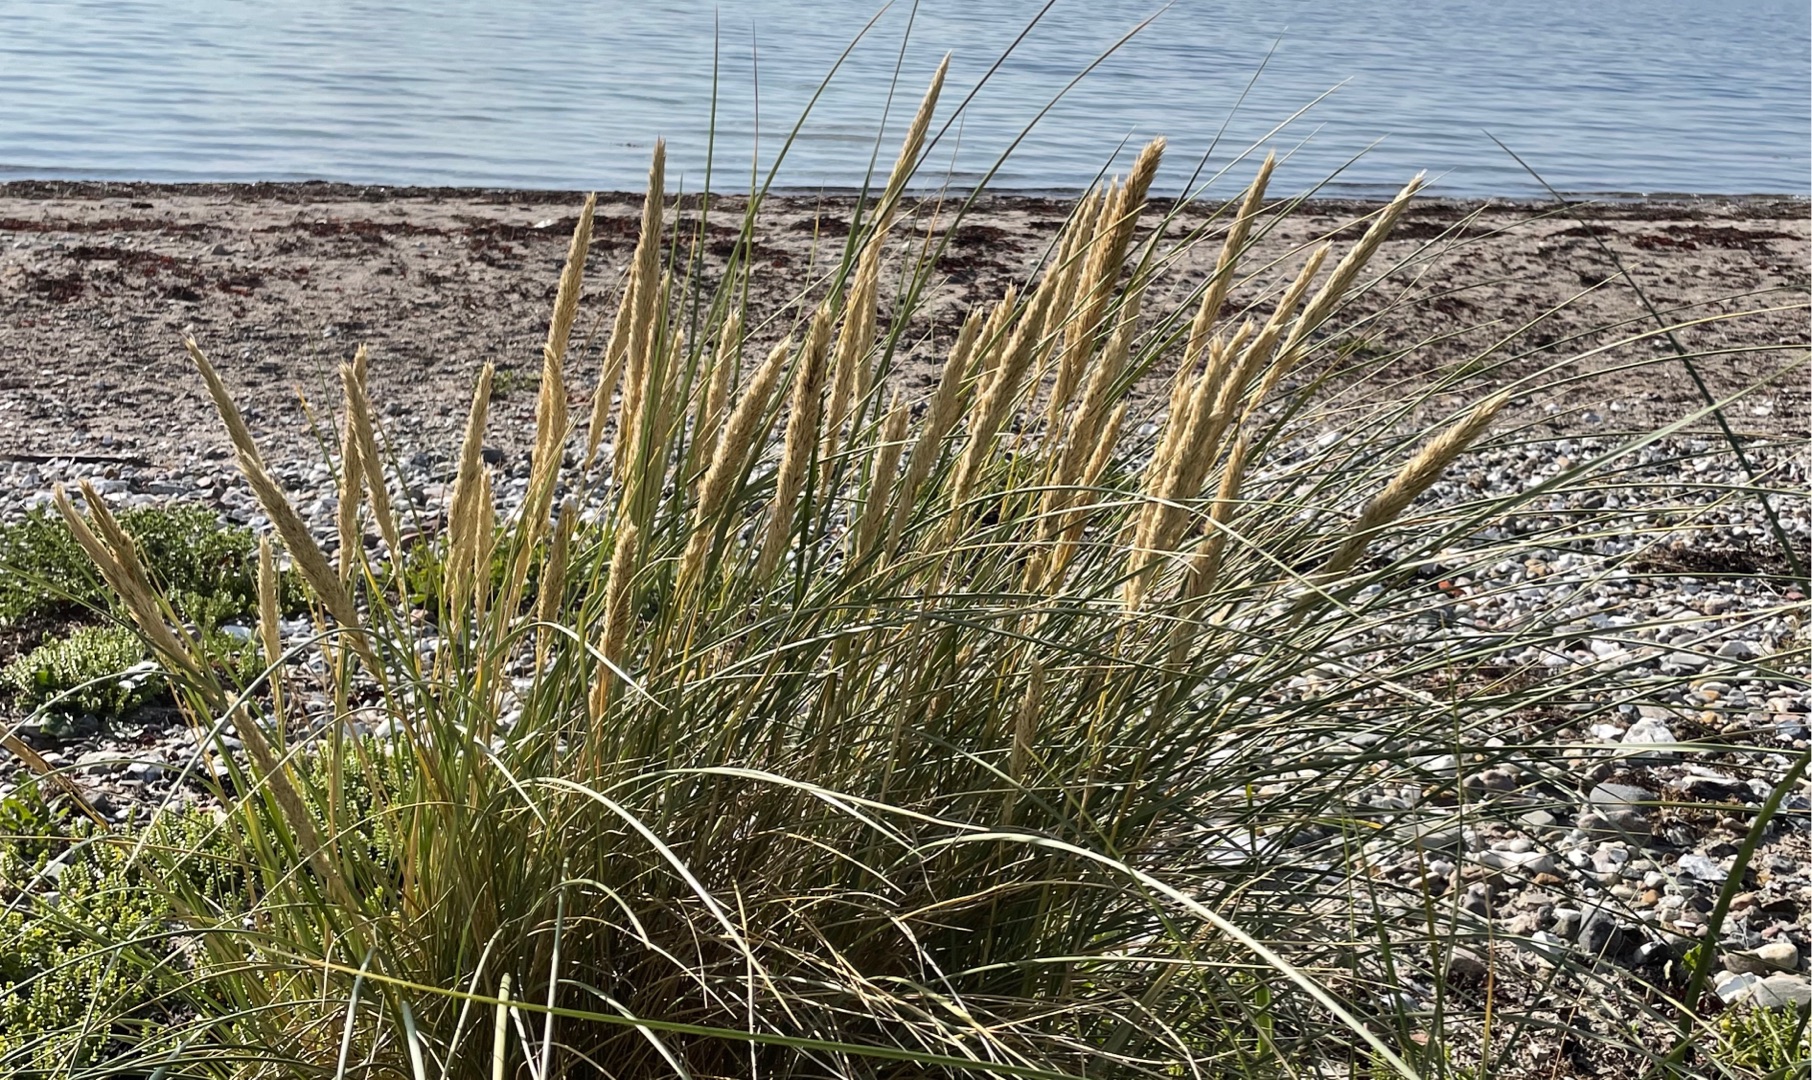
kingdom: Plantae
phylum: Tracheophyta
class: Liliopsida
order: Poales
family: Poaceae
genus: Calamagrostis
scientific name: Calamagrostis arenaria
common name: Sand-hjælme
